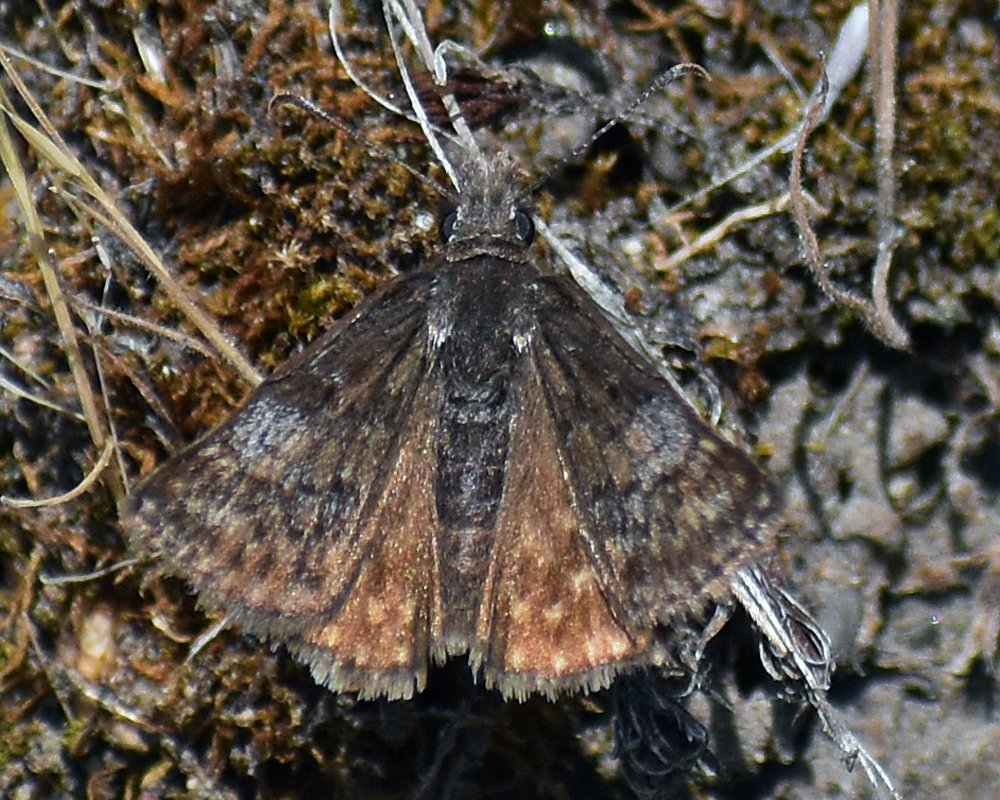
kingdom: Animalia
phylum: Arthropoda
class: Insecta
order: Lepidoptera
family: Hesperiidae
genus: Erynnis
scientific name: Erynnis icelus
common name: Dreamy Duskywing
